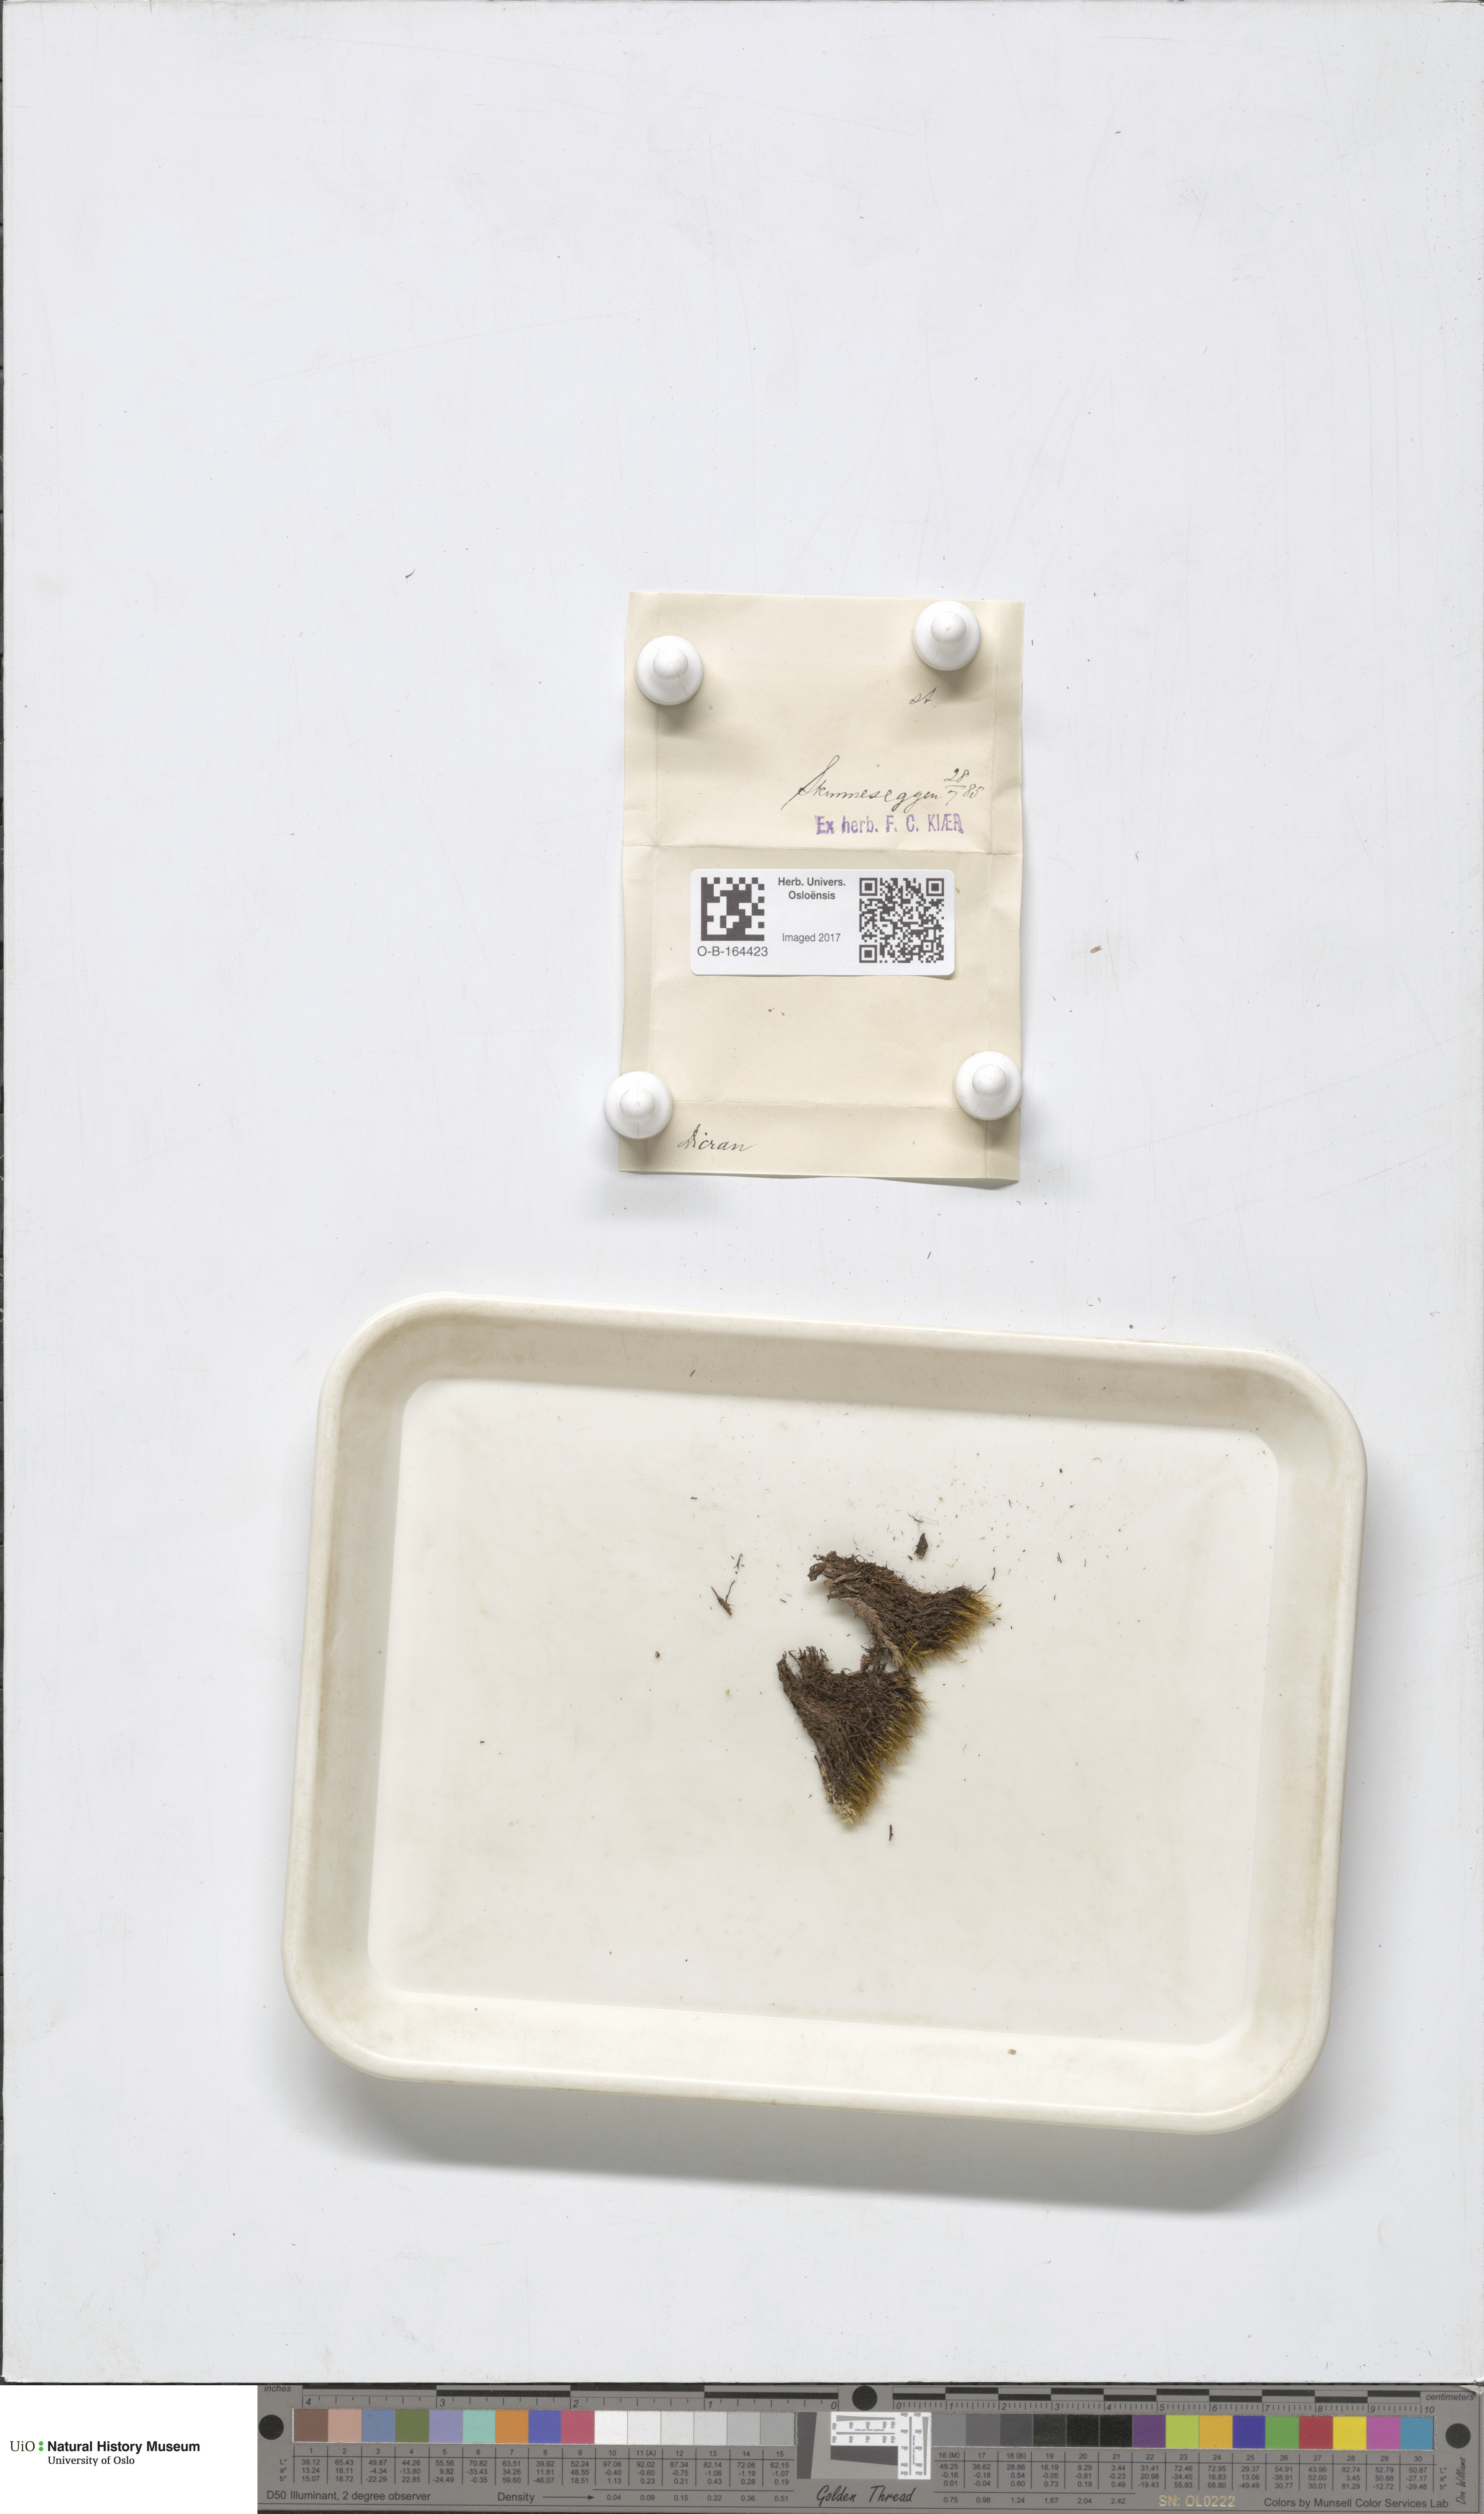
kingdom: Plantae
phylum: Bryophyta
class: Bryopsida
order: Dicranales
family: Dicranaceae
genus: Dicranum
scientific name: Dicranum
